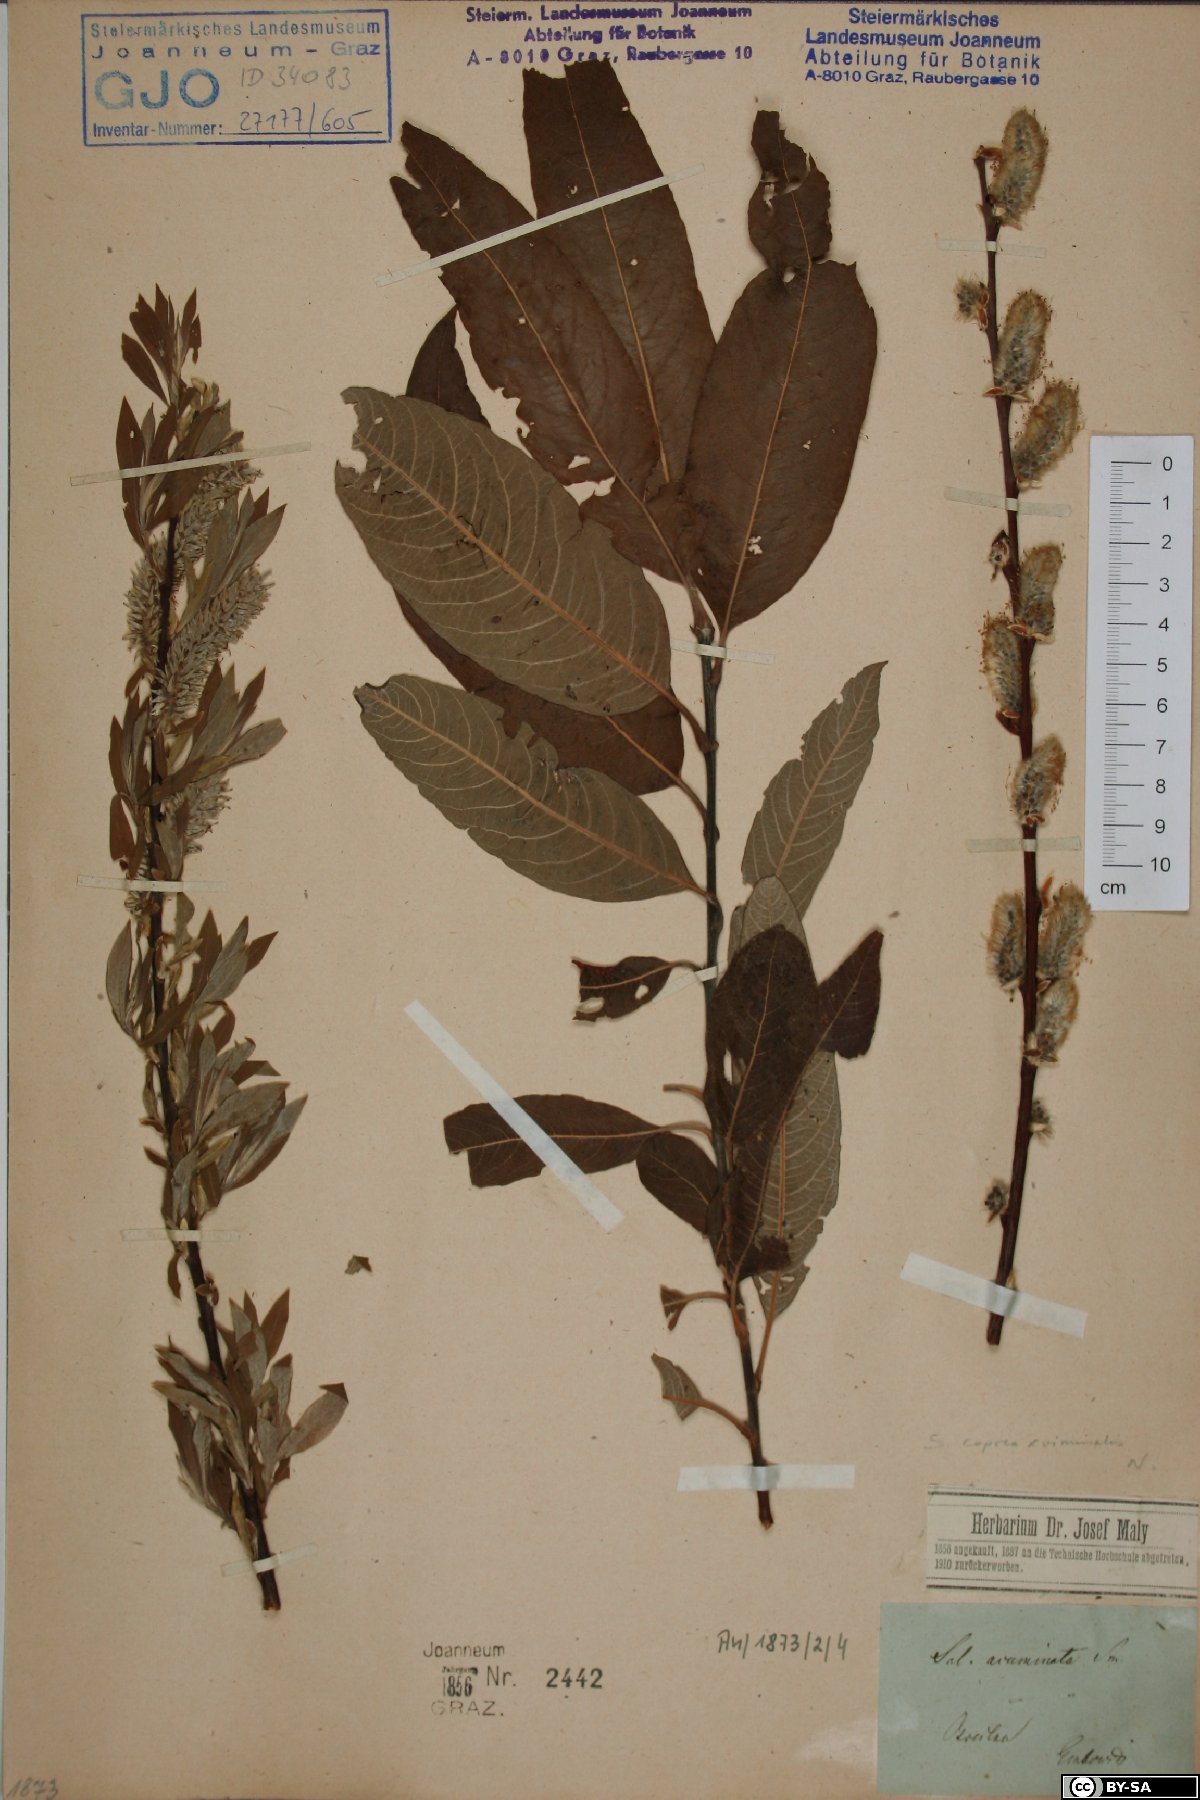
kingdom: Plantae
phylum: Tracheophyta
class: Magnoliopsida
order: Malpighiales
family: Salicaceae
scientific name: Salicaceae
